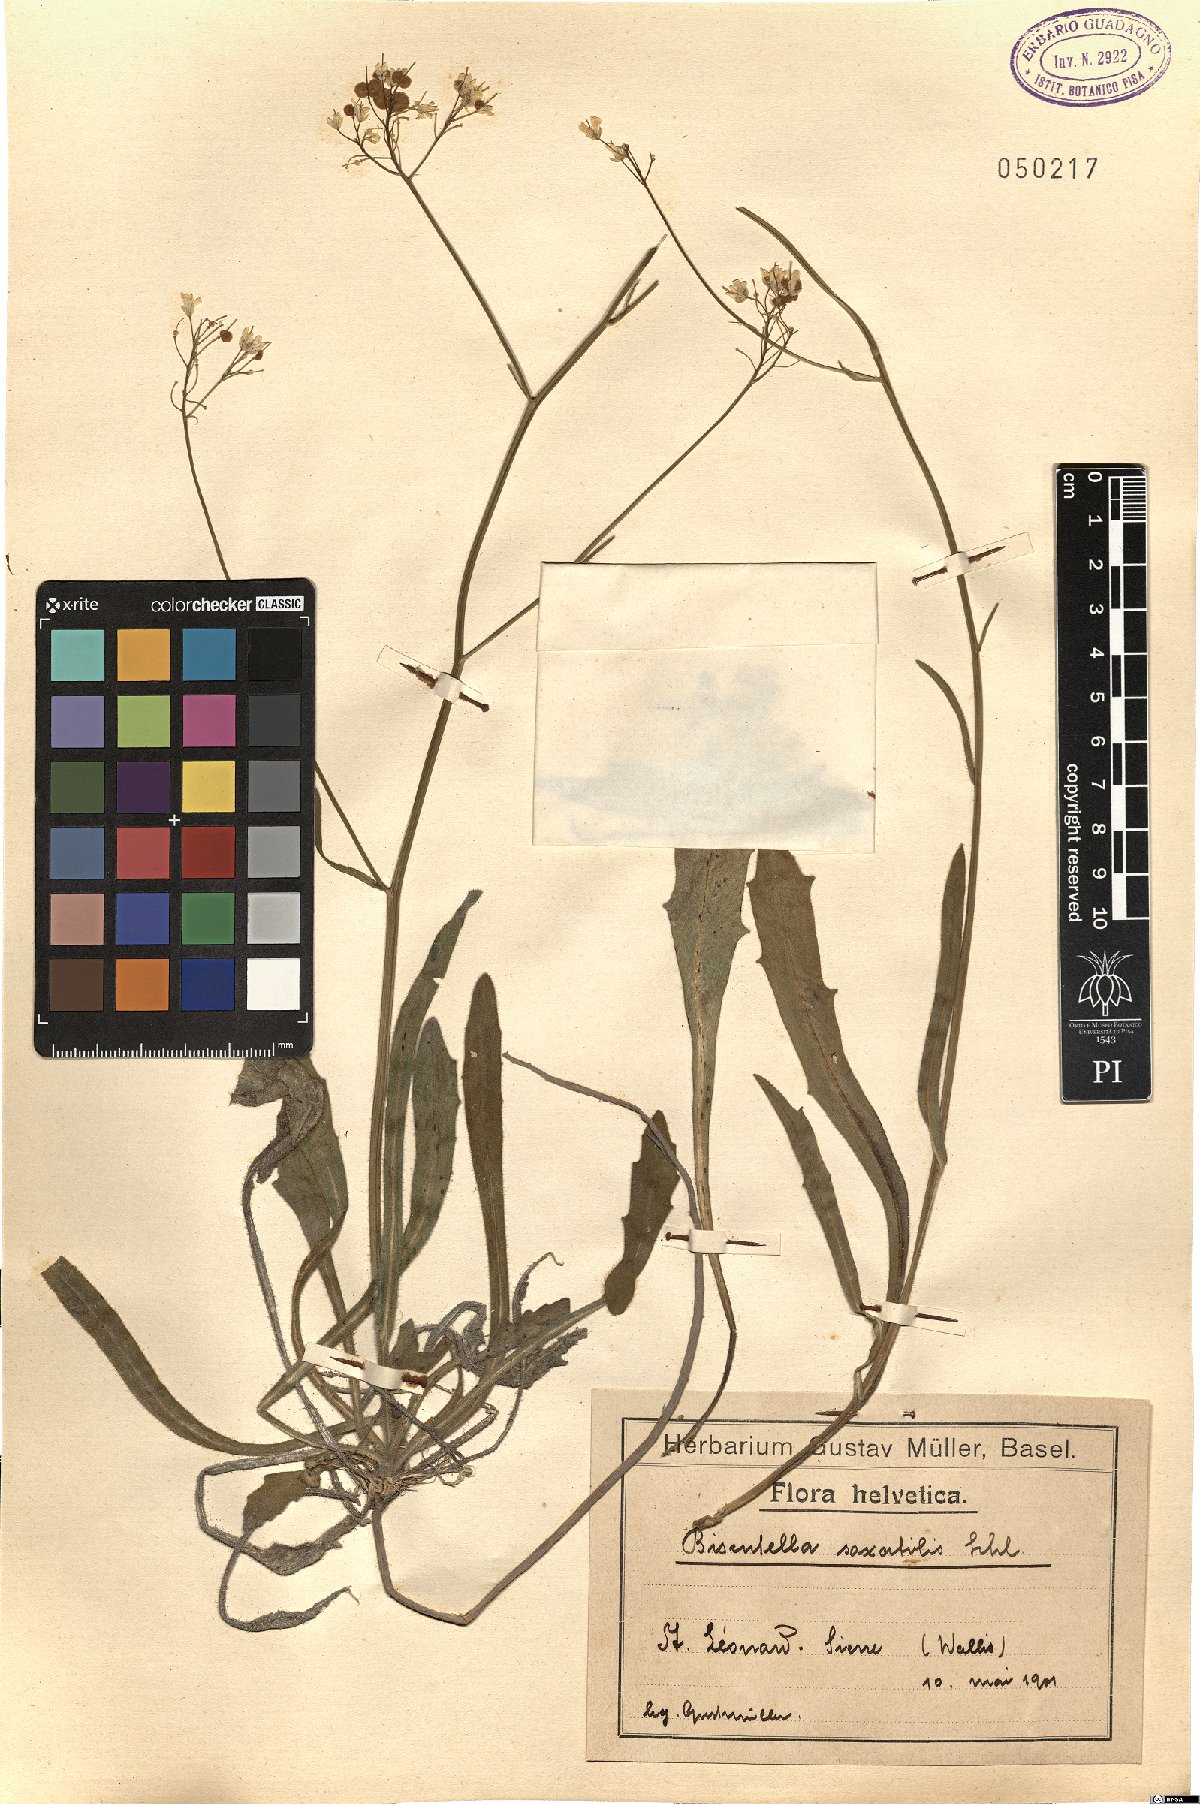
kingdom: Plantae
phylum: Tracheophyta
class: Magnoliopsida
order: Brassicales
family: Brassicaceae
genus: Biscutella
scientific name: Biscutella laevigata
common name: Buckler mustard
